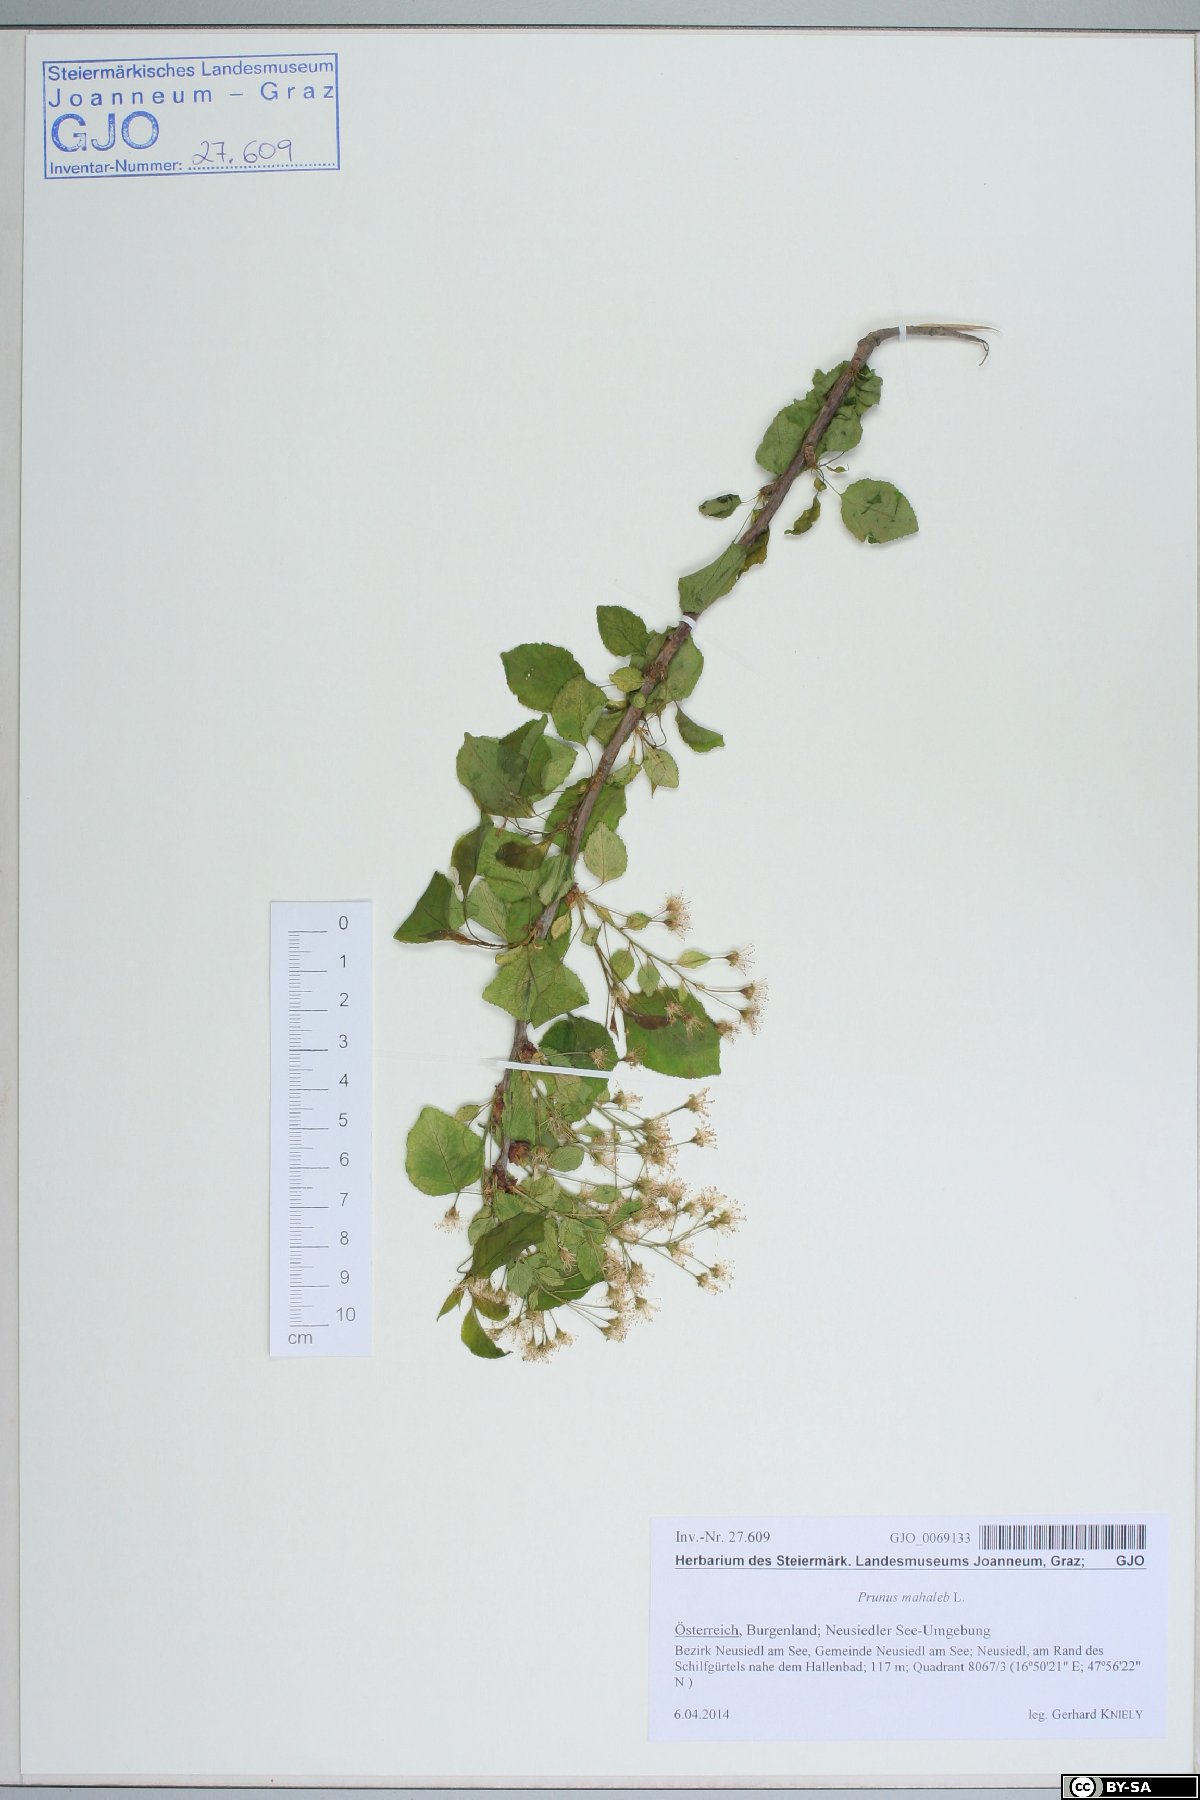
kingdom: Plantae
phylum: Tracheophyta
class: Magnoliopsida
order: Rosales
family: Rosaceae
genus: Prunus
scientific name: Prunus mahaleb
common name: Mahaleb cherry
